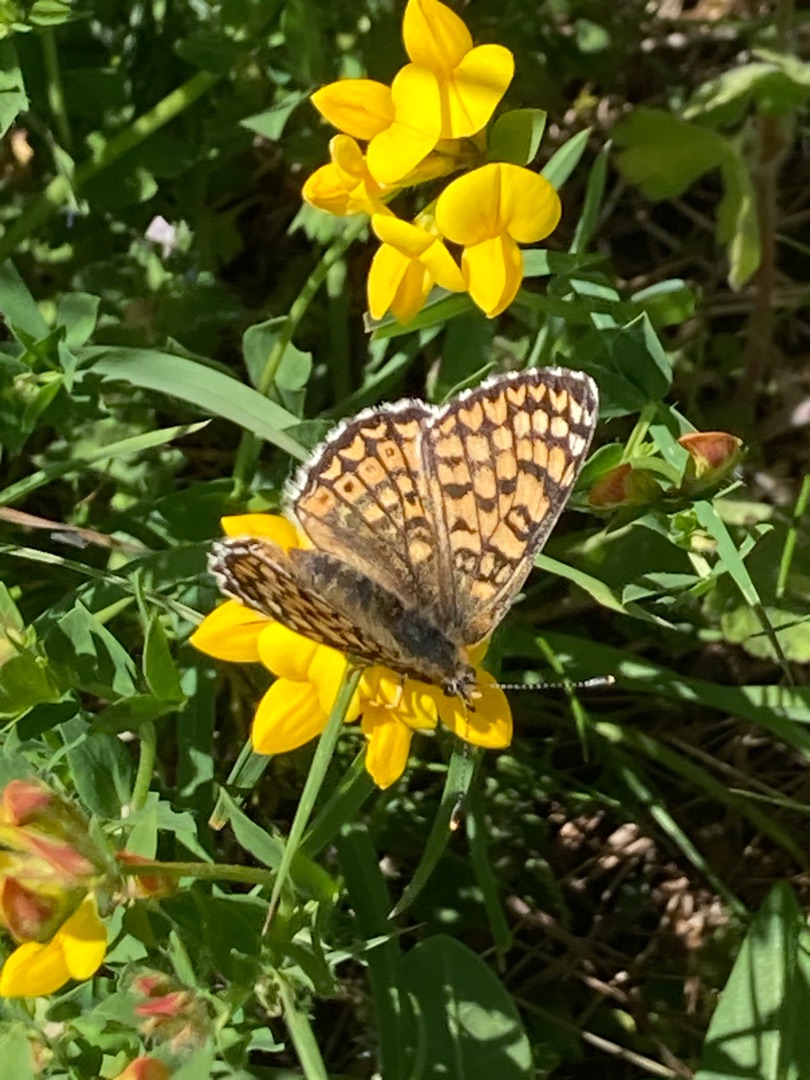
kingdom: Animalia
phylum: Arthropoda
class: Insecta
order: Lepidoptera
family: Nymphalidae
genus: Melitaea
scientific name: Melitaea cinxia
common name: Okkergul pletvinge
